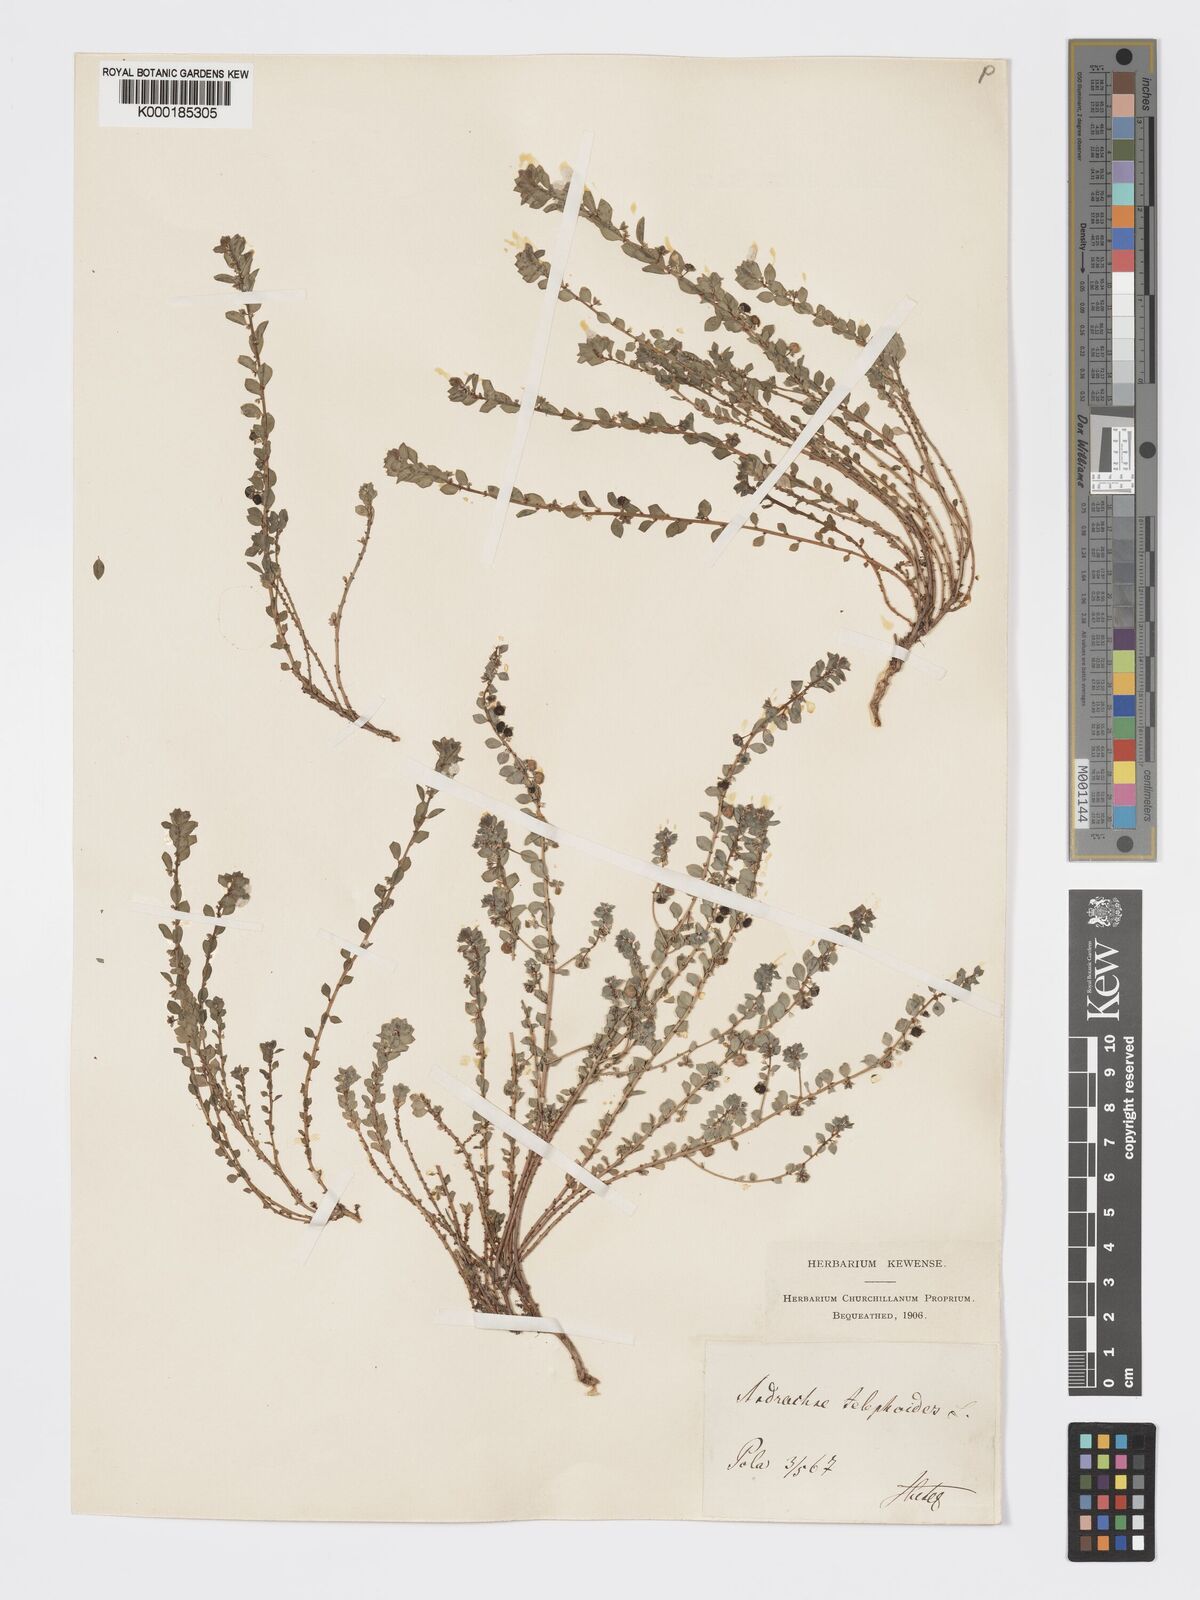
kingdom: Plantae
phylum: Tracheophyta
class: Magnoliopsida
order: Malpighiales
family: Phyllanthaceae
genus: Andrachne
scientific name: Andrachne telephioides
